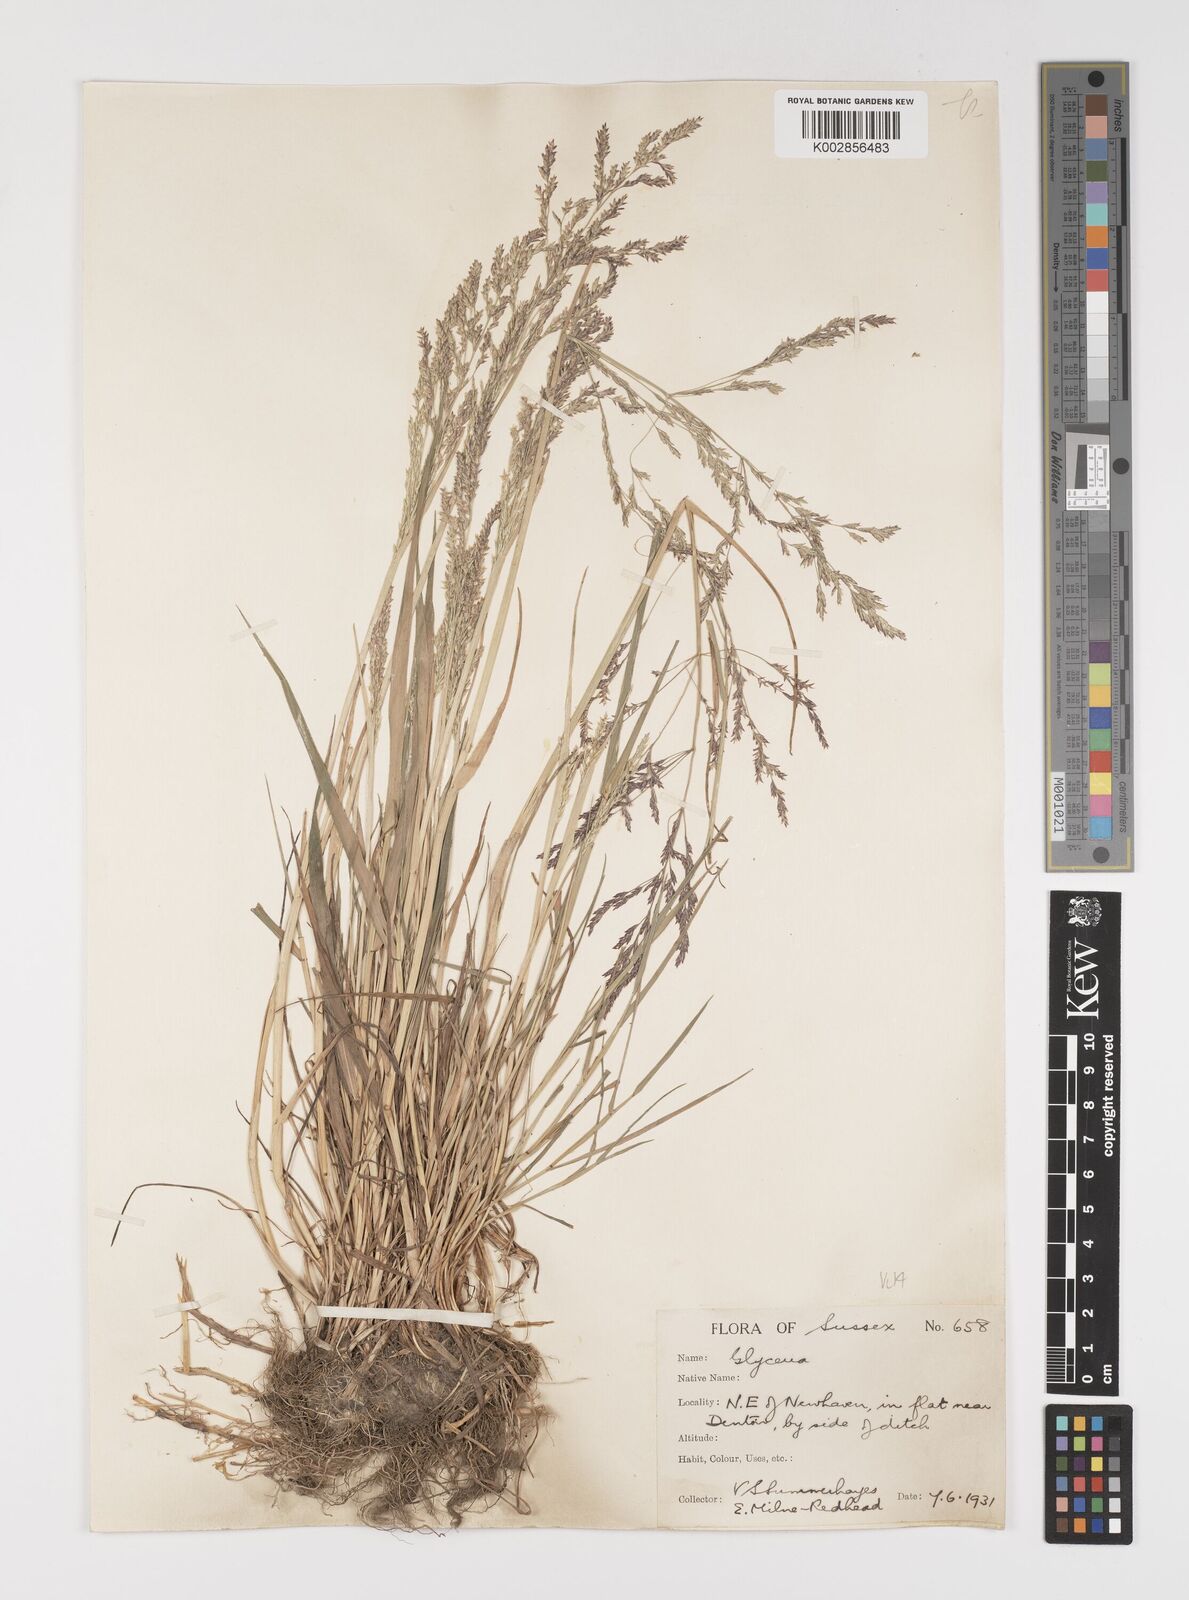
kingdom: Plantae
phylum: Tracheophyta
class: Liliopsida
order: Poales
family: Poaceae
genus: Puccinellia
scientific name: Puccinellia distans
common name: Weeping alkaligrass
